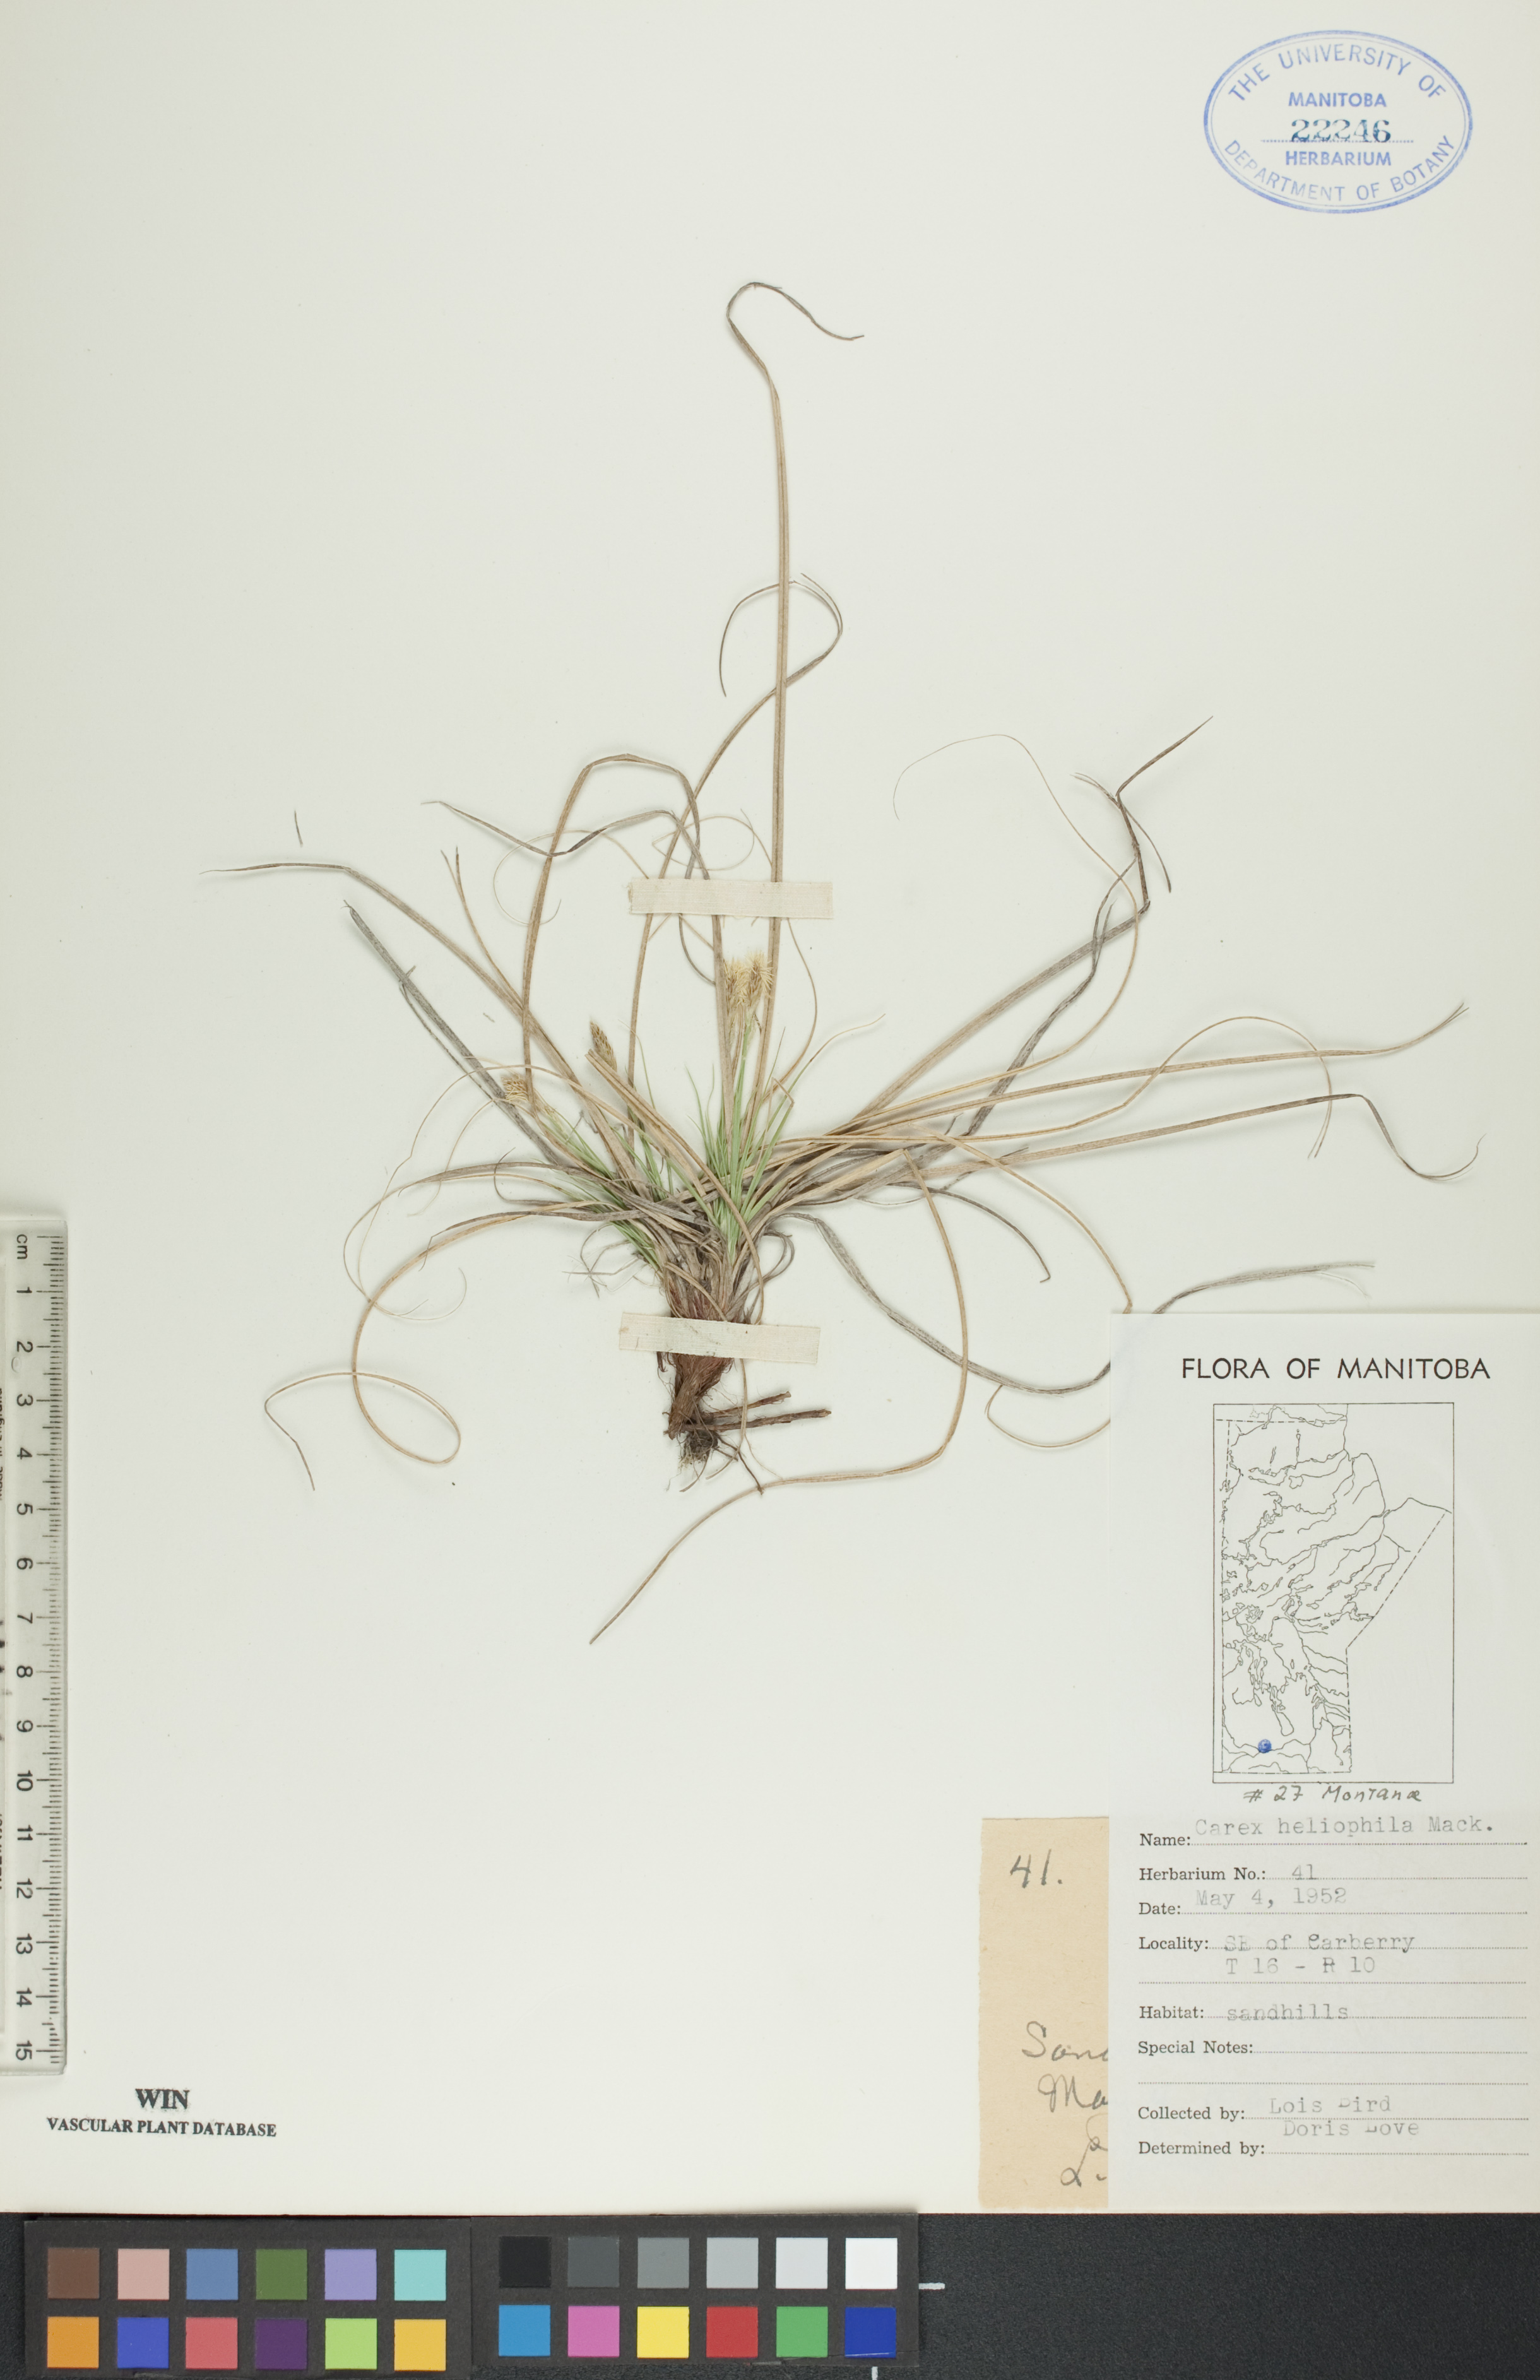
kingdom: Plantae
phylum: Tracheophyta
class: Liliopsida
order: Poales
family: Cyperaceae
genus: Carex
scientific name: Carex inops
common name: Long-stolon sedge
